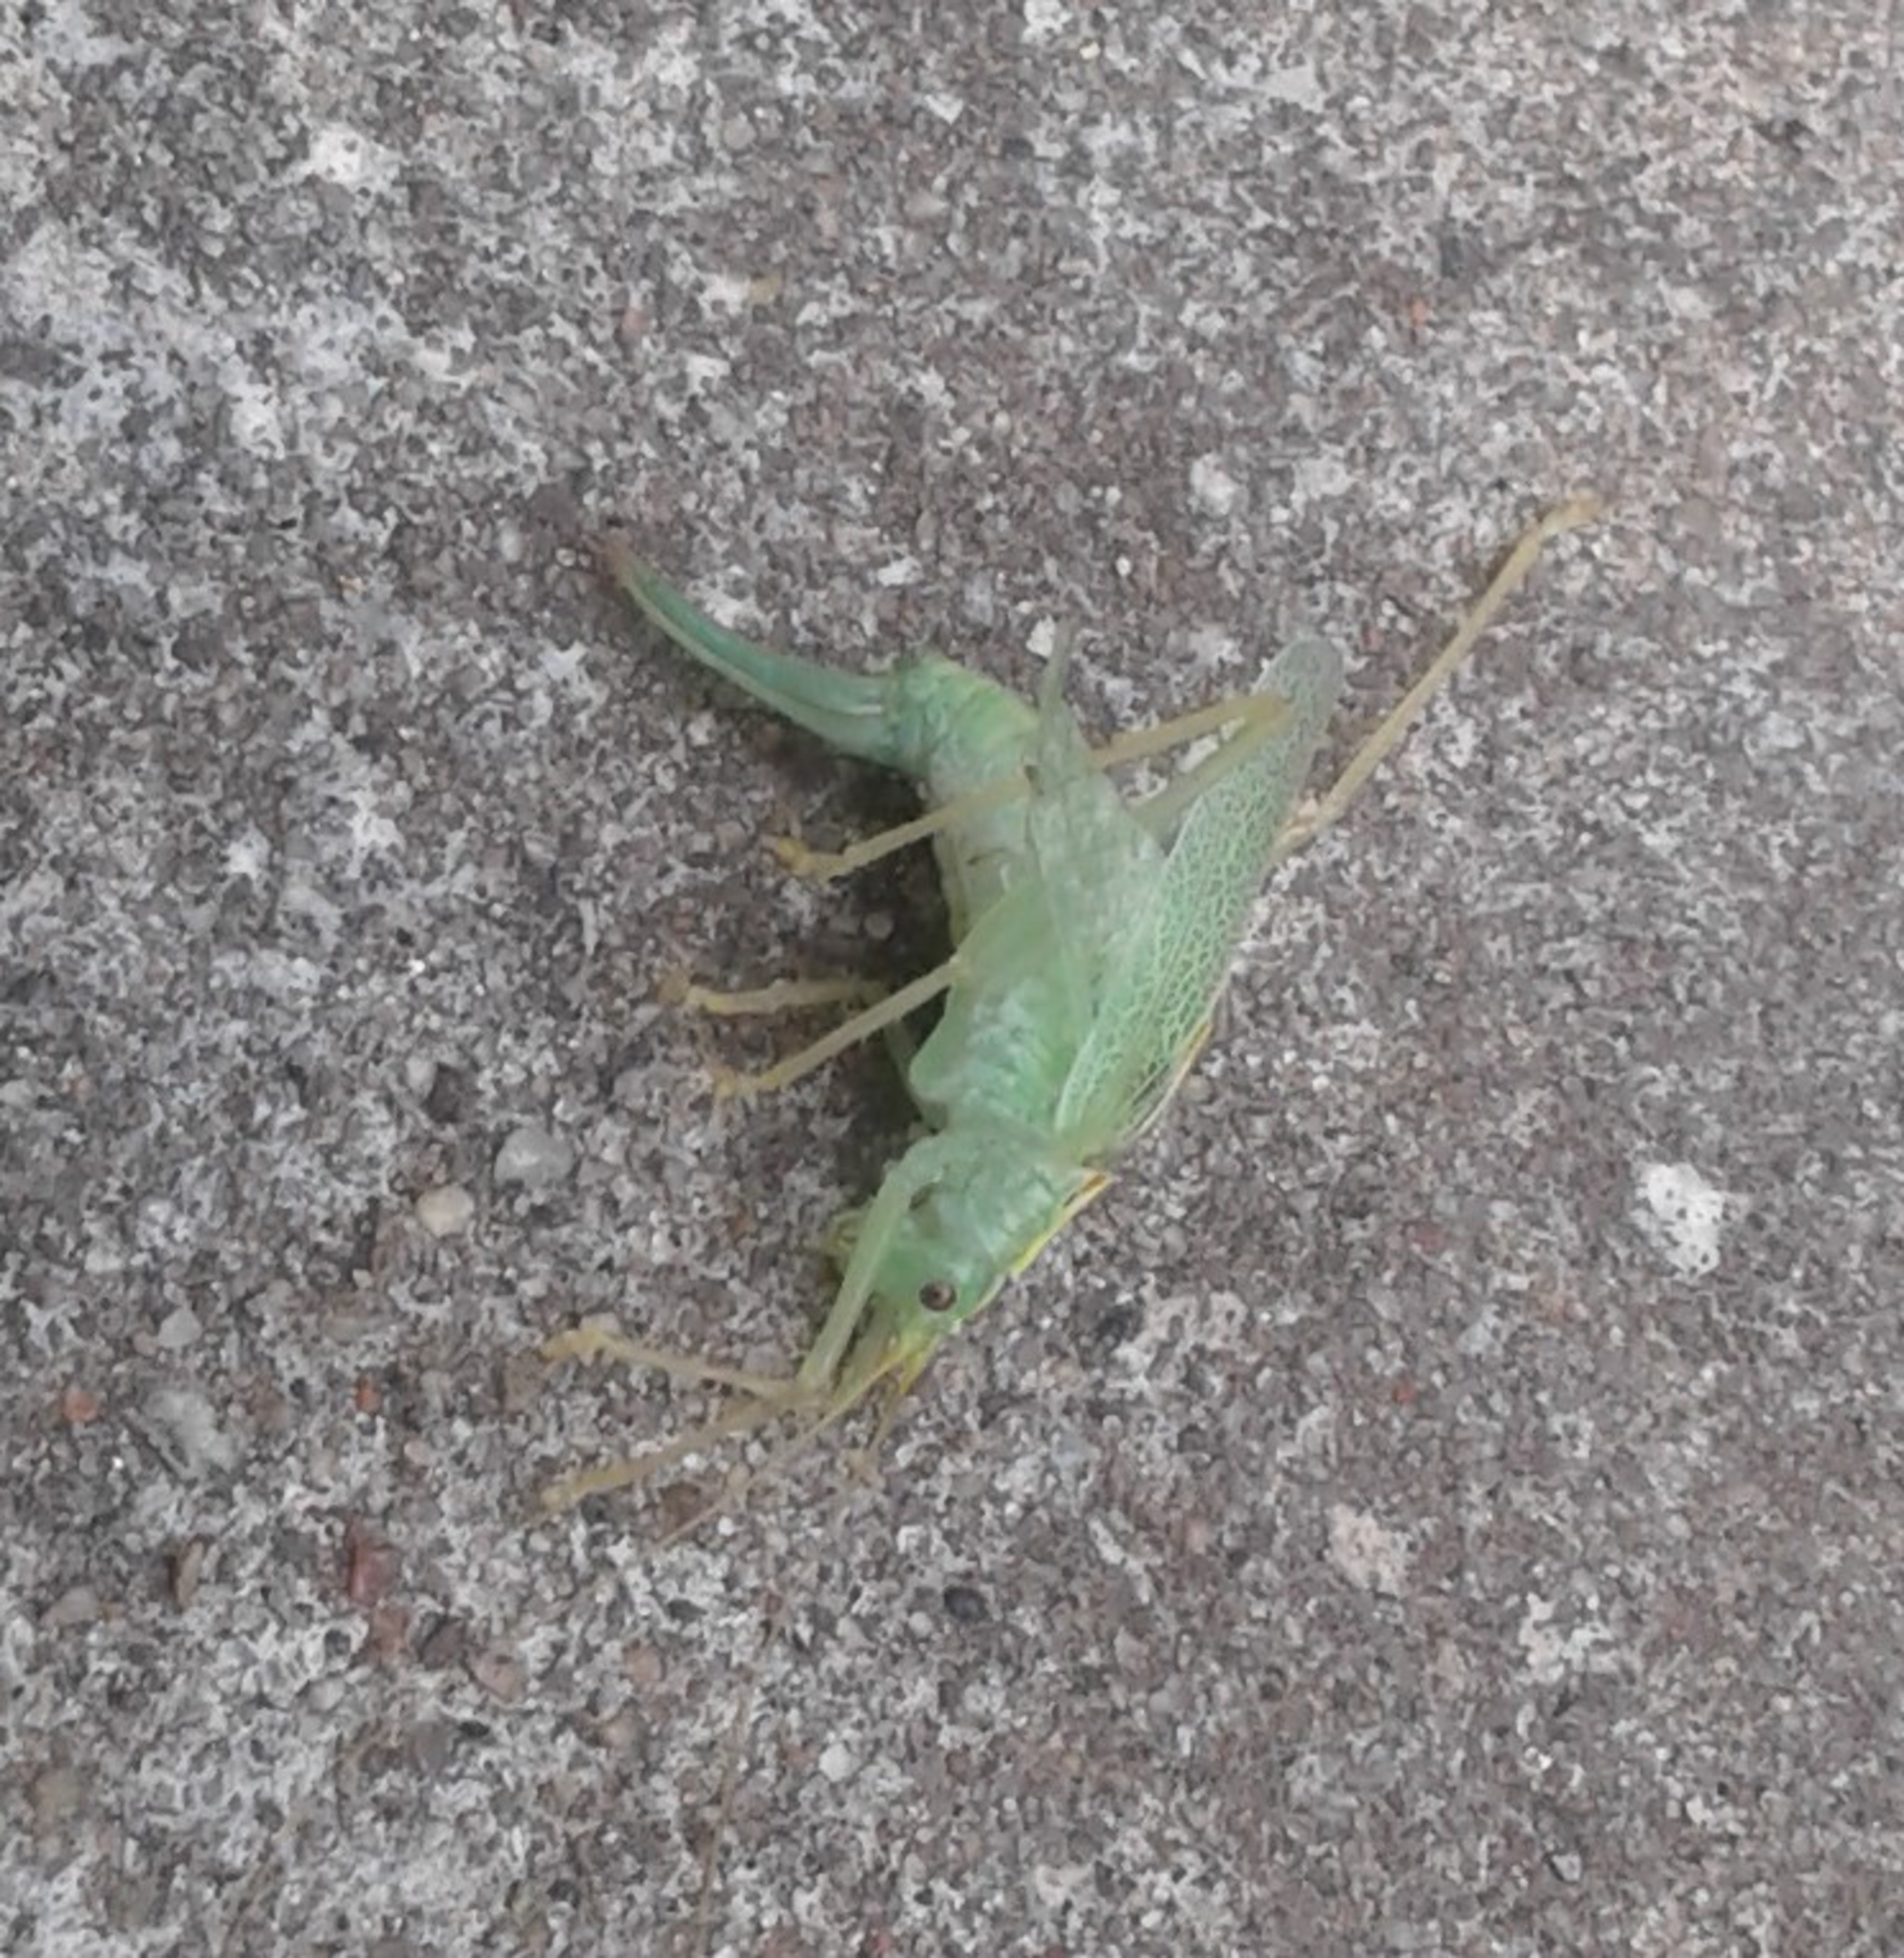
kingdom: Animalia
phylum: Arthropoda
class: Insecta
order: Orthoptera
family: Tettigoniidae
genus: Meconema
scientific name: Meconema thalassinum
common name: Egegræshoppe
